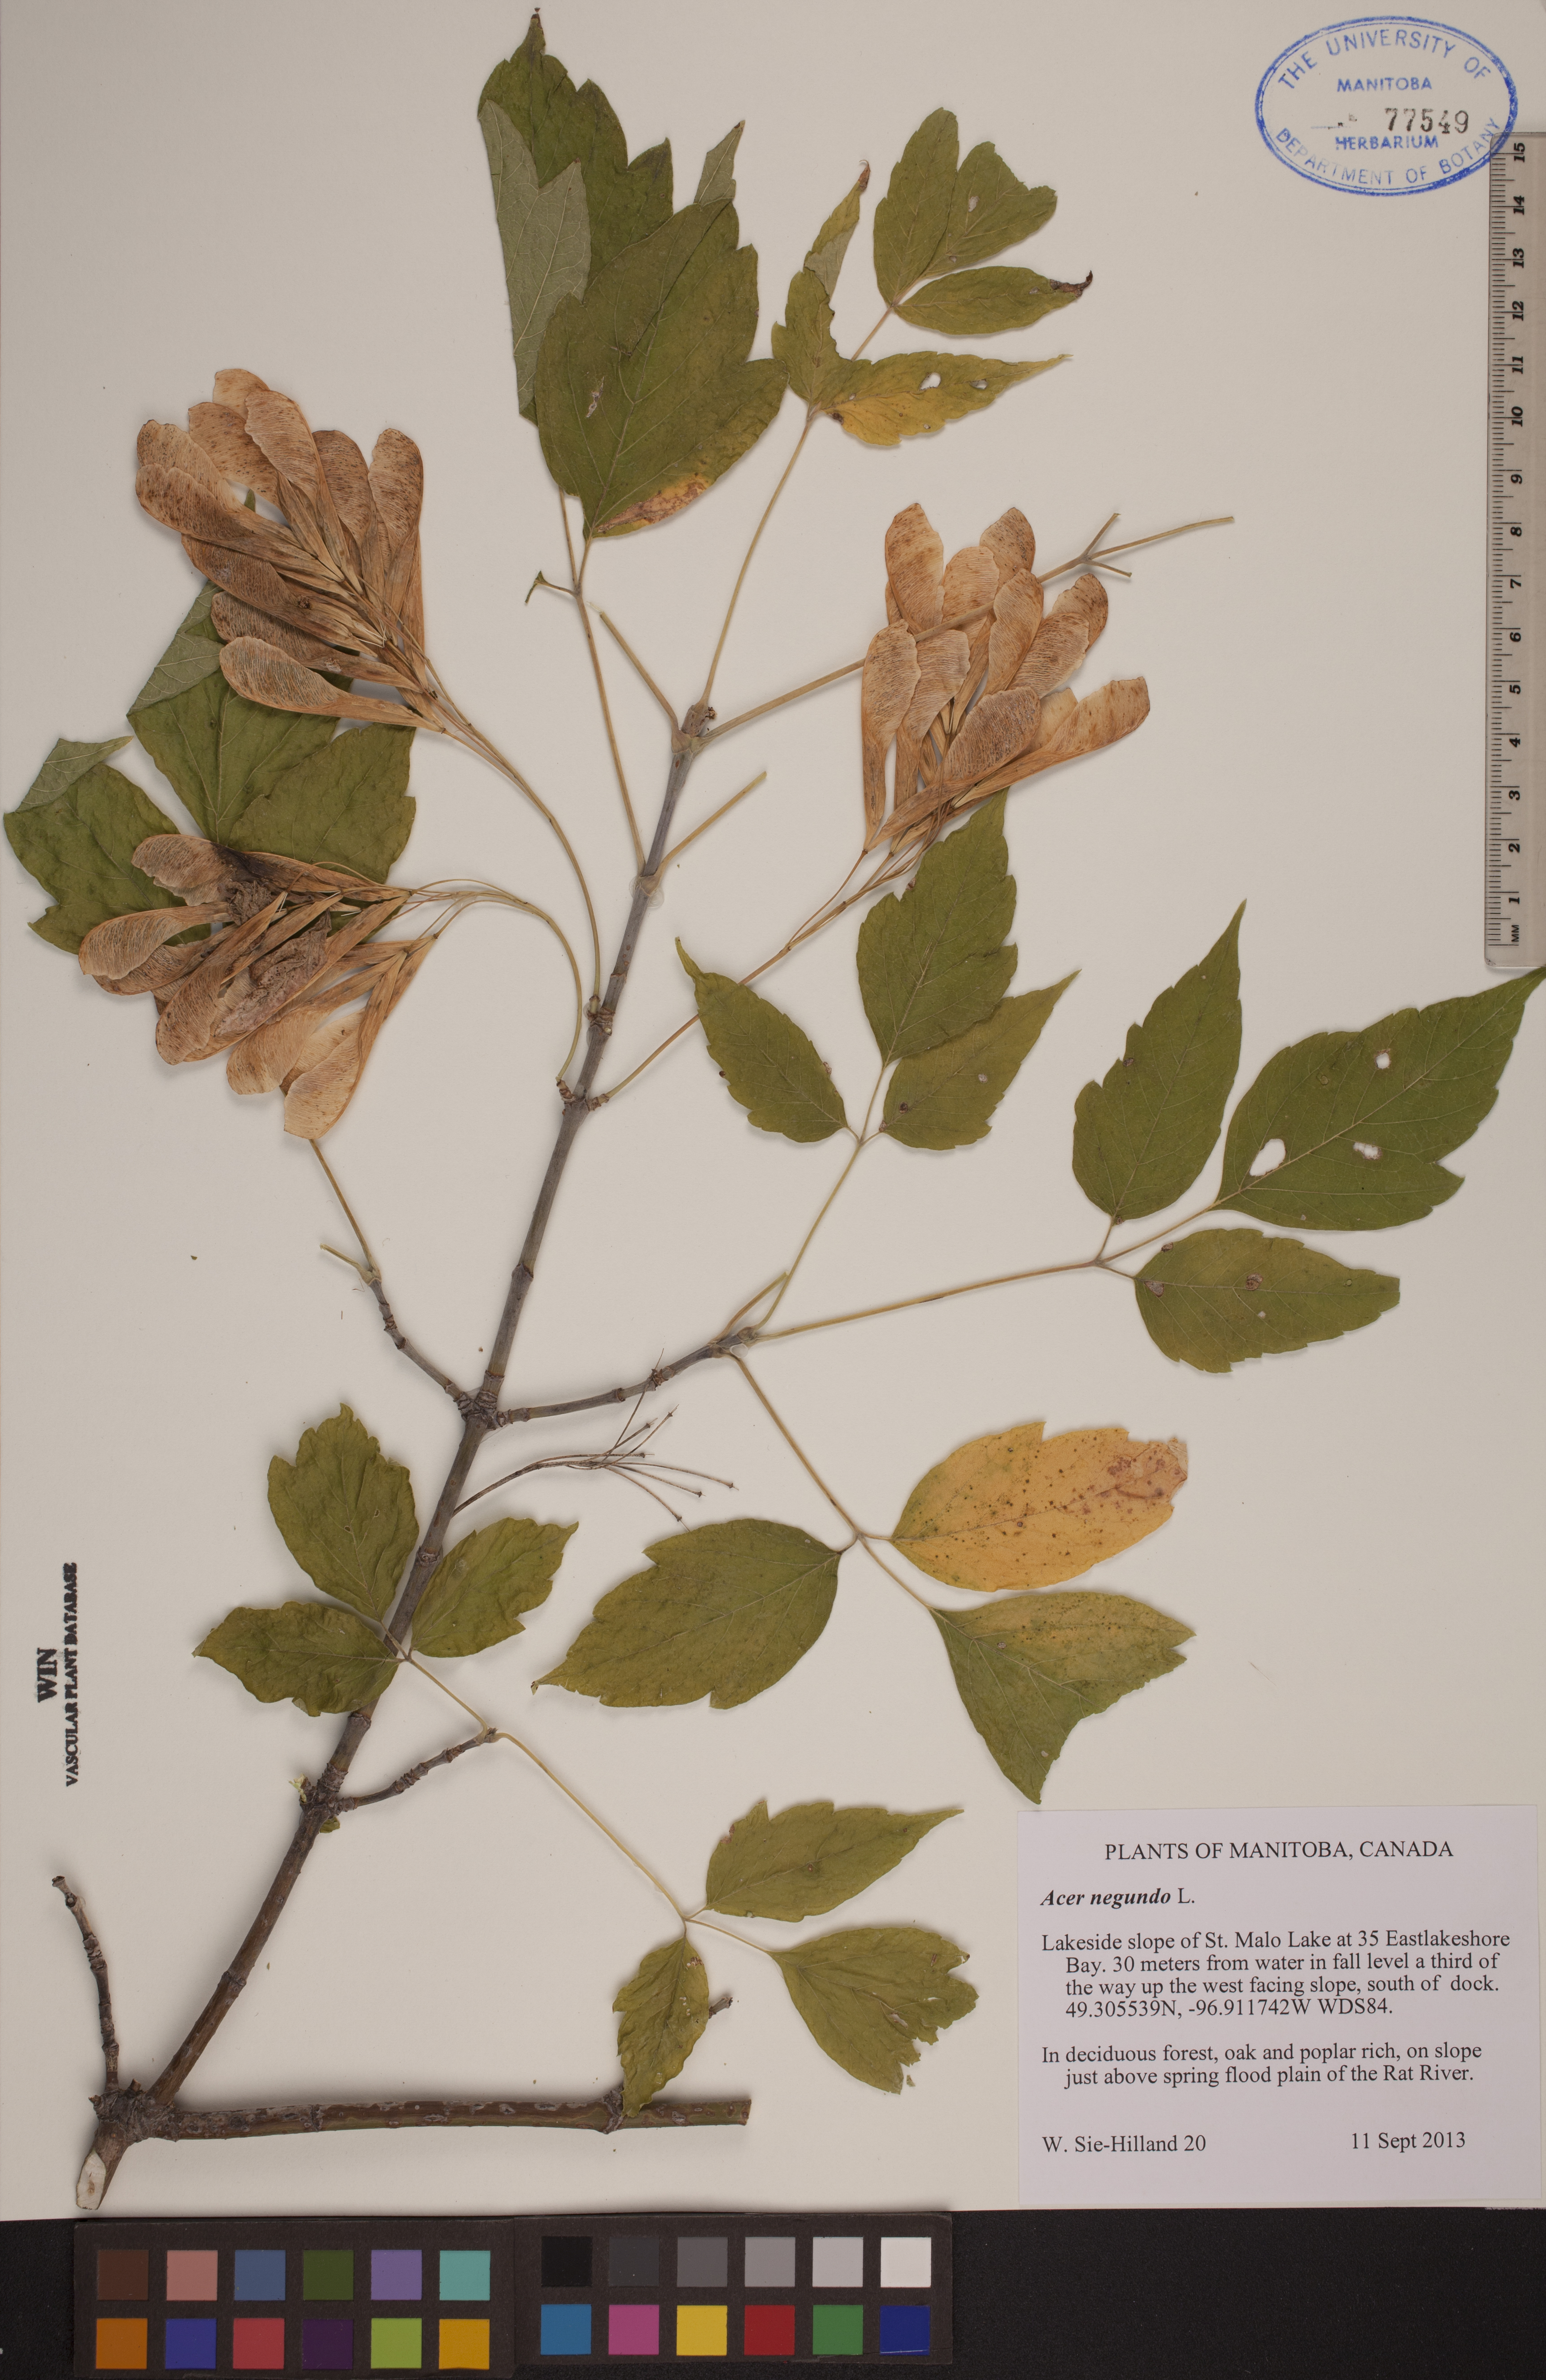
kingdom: Plantae
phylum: Tracheophyta
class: Magnoliopsida
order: Sapindales
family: Sapindaceae
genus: Acer
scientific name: Acer negundo
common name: Ashleaf maple
